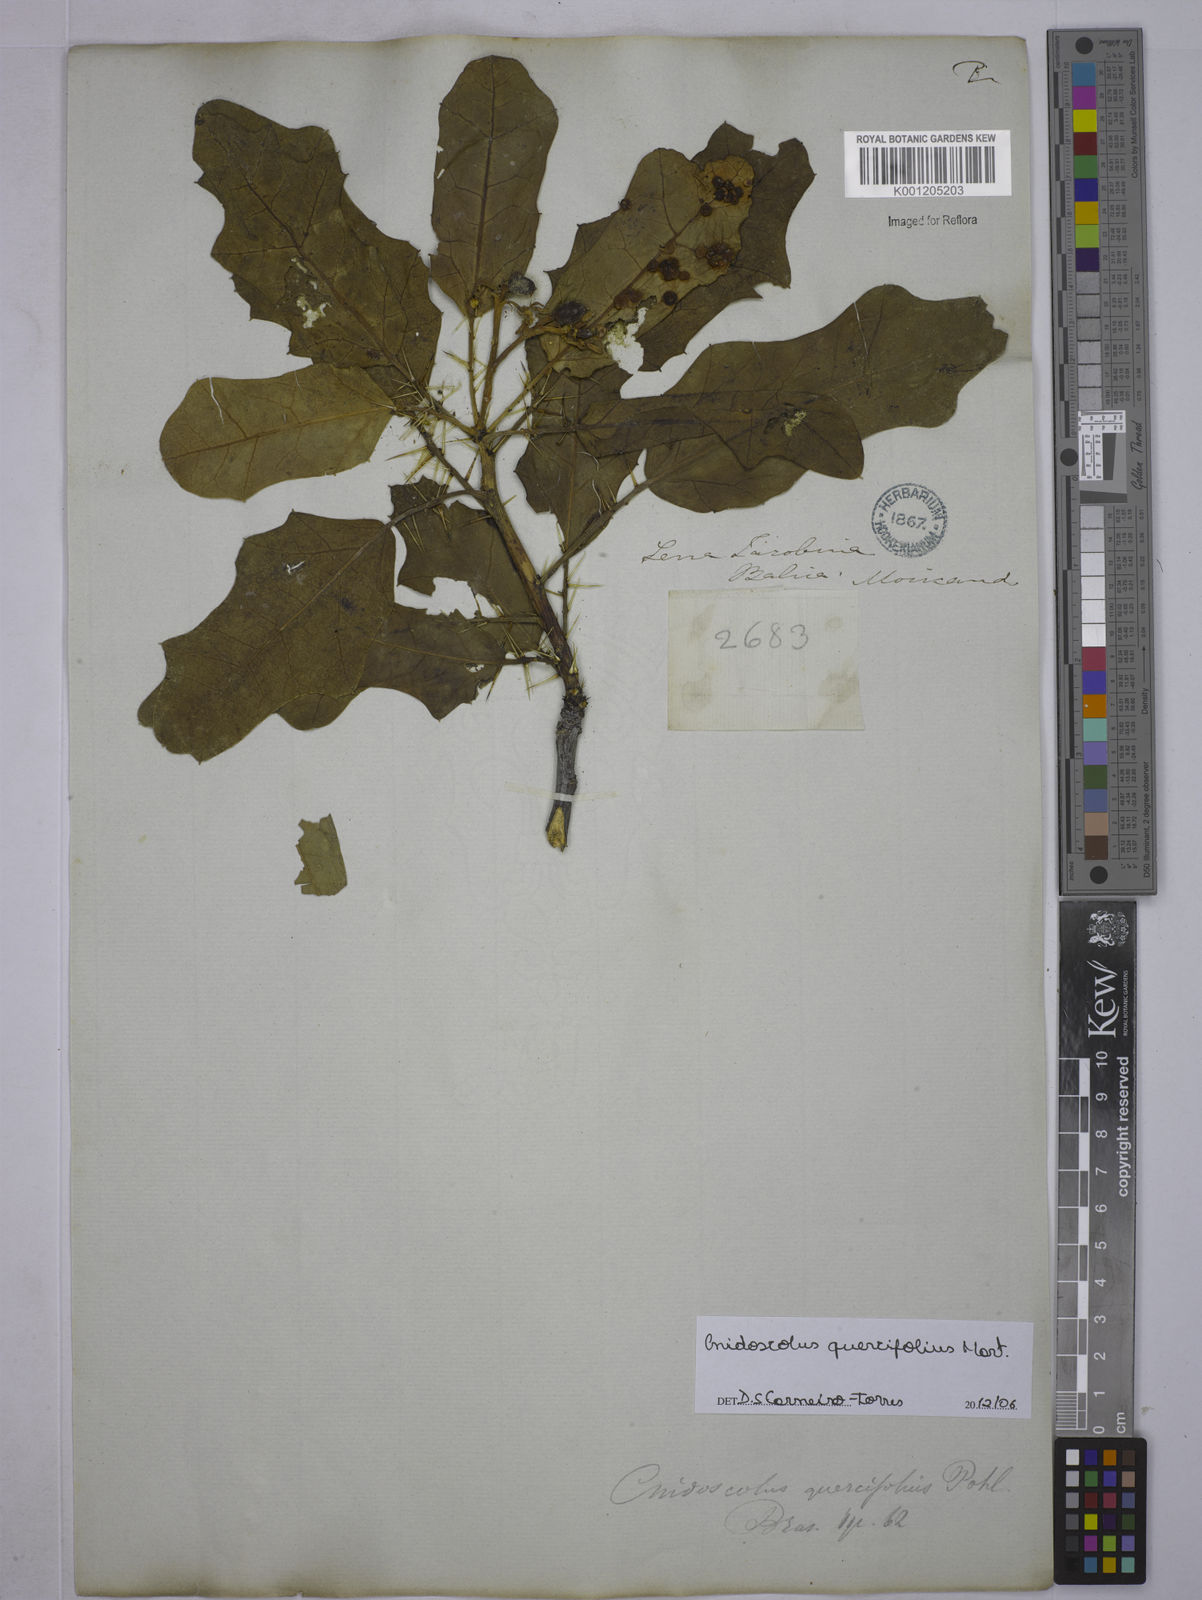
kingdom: Plantae
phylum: Tracheophyta
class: Magnoliopsida
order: Malpighiales
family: Euphorbiaceae
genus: Cnidoscolus
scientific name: Cnidoscolus quercifolius
